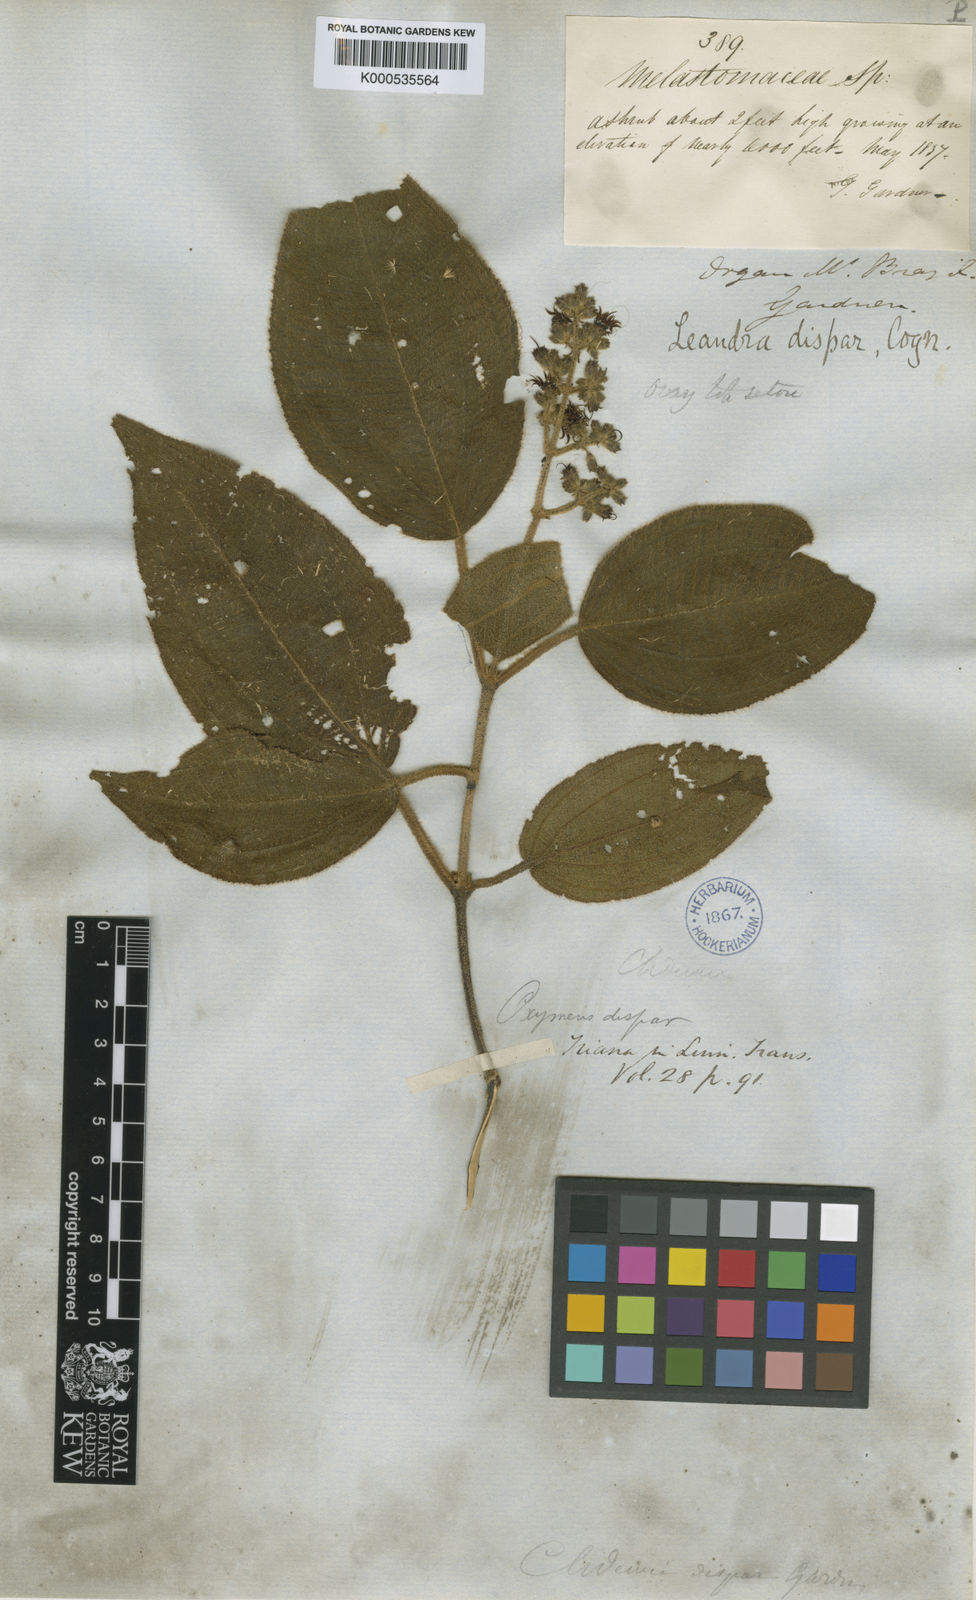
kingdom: Plantae
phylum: Tracheophyta
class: Magnoliopsida
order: Myrtales
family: Melastomataceae
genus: Miconia
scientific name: Miconia leadispar
